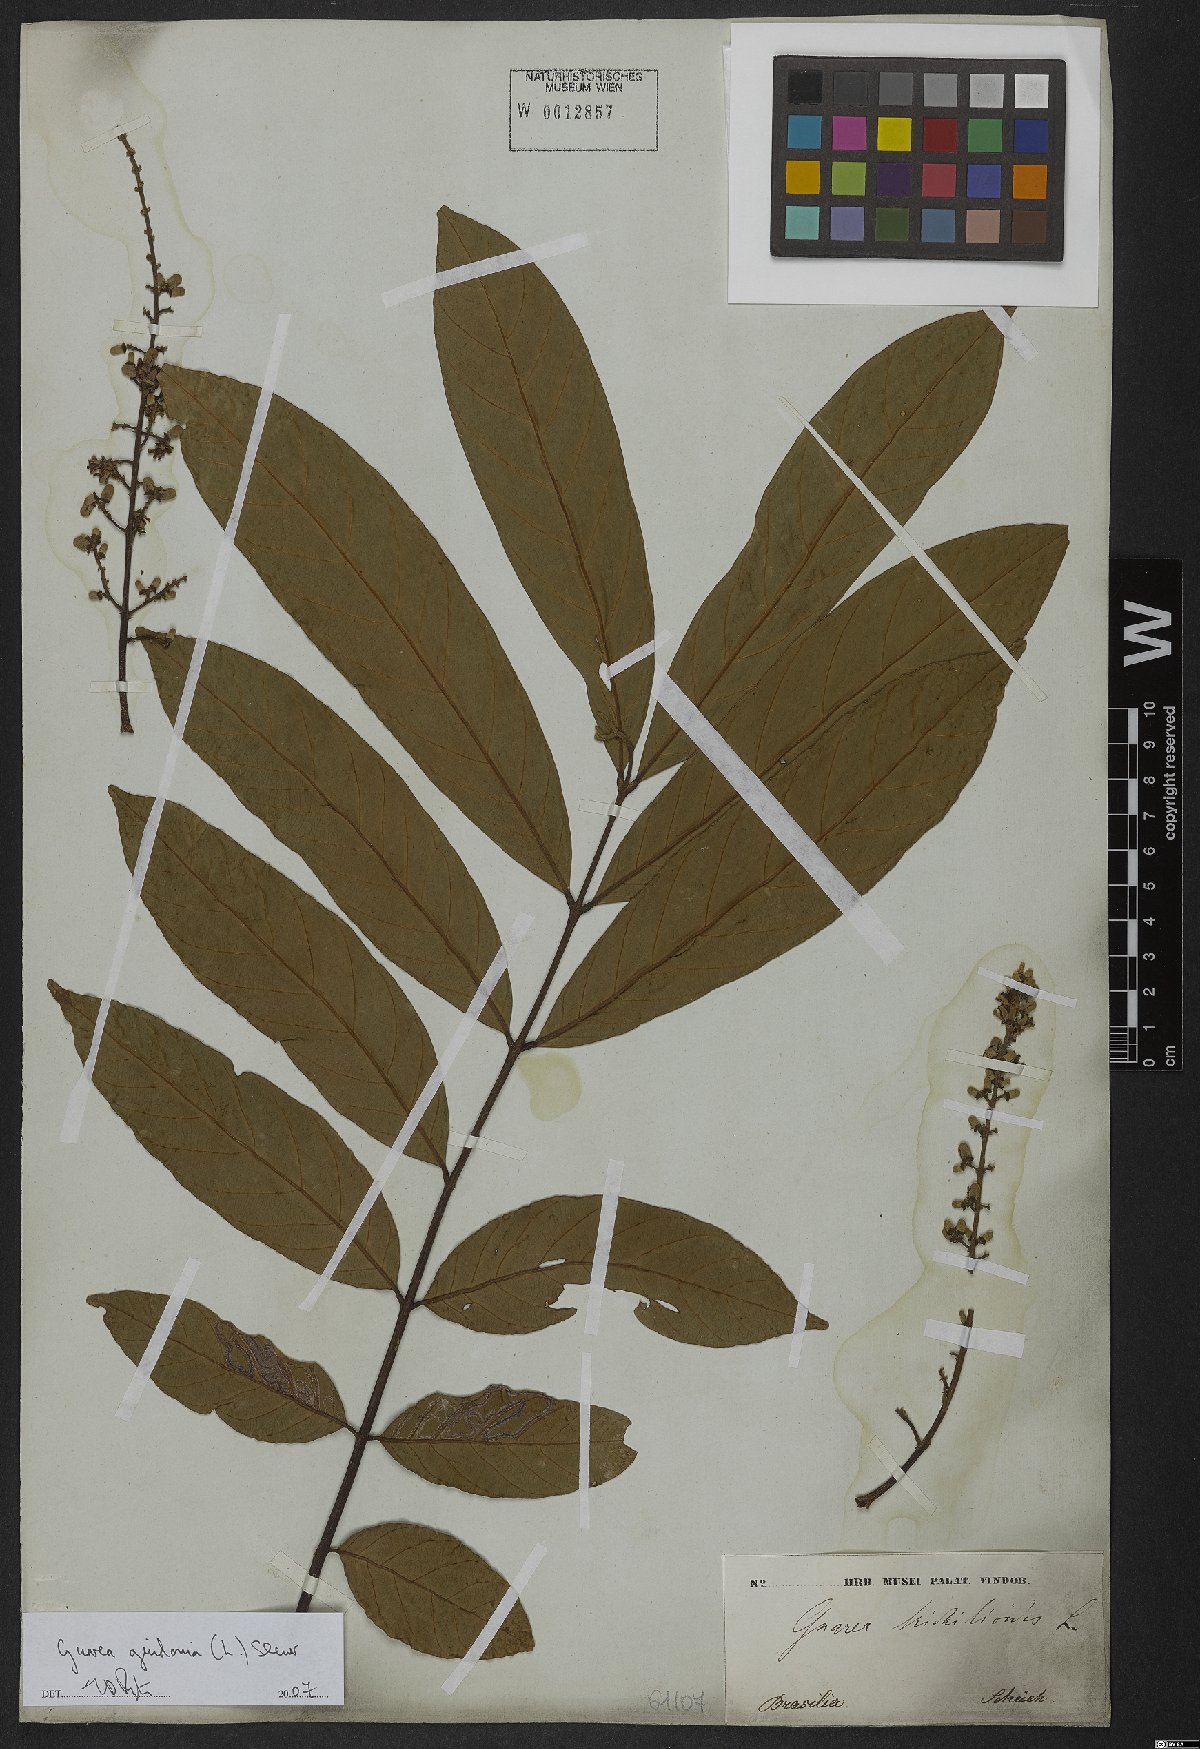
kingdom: Plantae
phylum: Tracheophyta
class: Magnoliopsida
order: Sapindales
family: Meliaceae
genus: Guarea
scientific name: Guarea guidonia
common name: American muskwood
